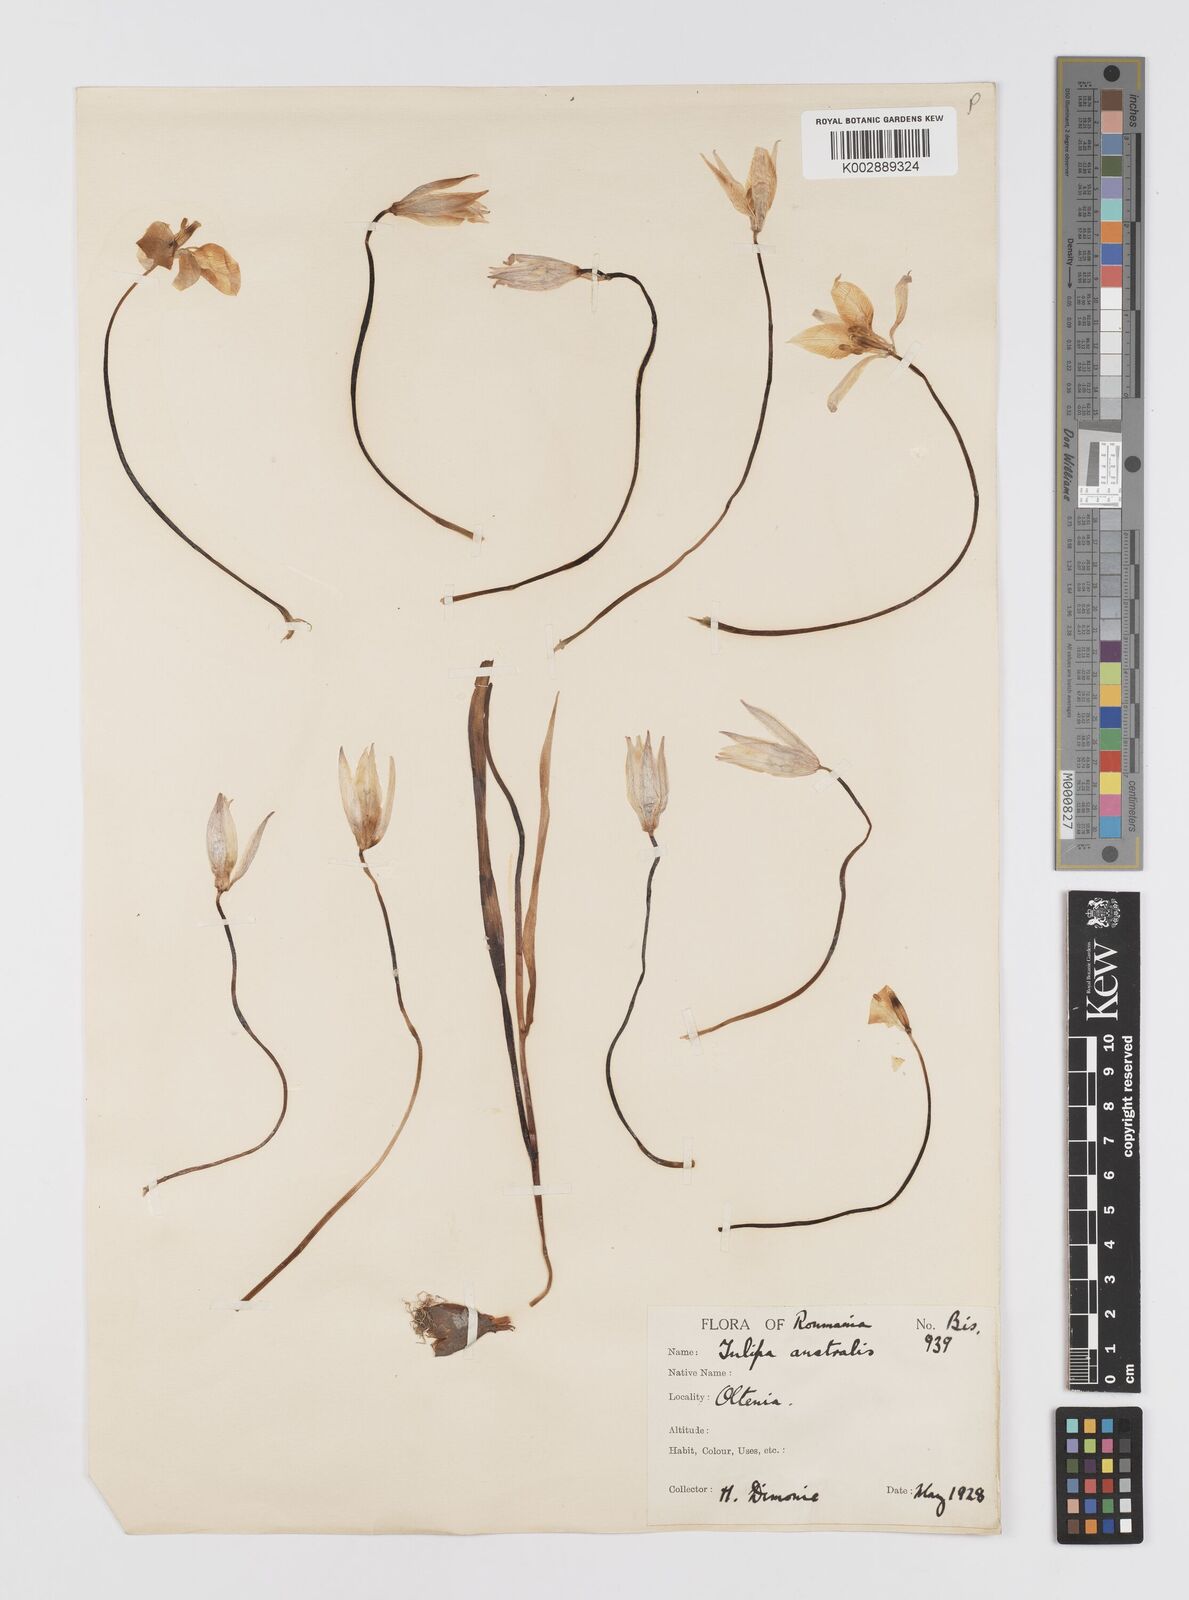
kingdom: Plantae
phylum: Tracheophyta
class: Liliopsida
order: Liliales
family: Liliaceae
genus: Tulipa
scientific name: Tulipa sylvestris
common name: Wild tulip
